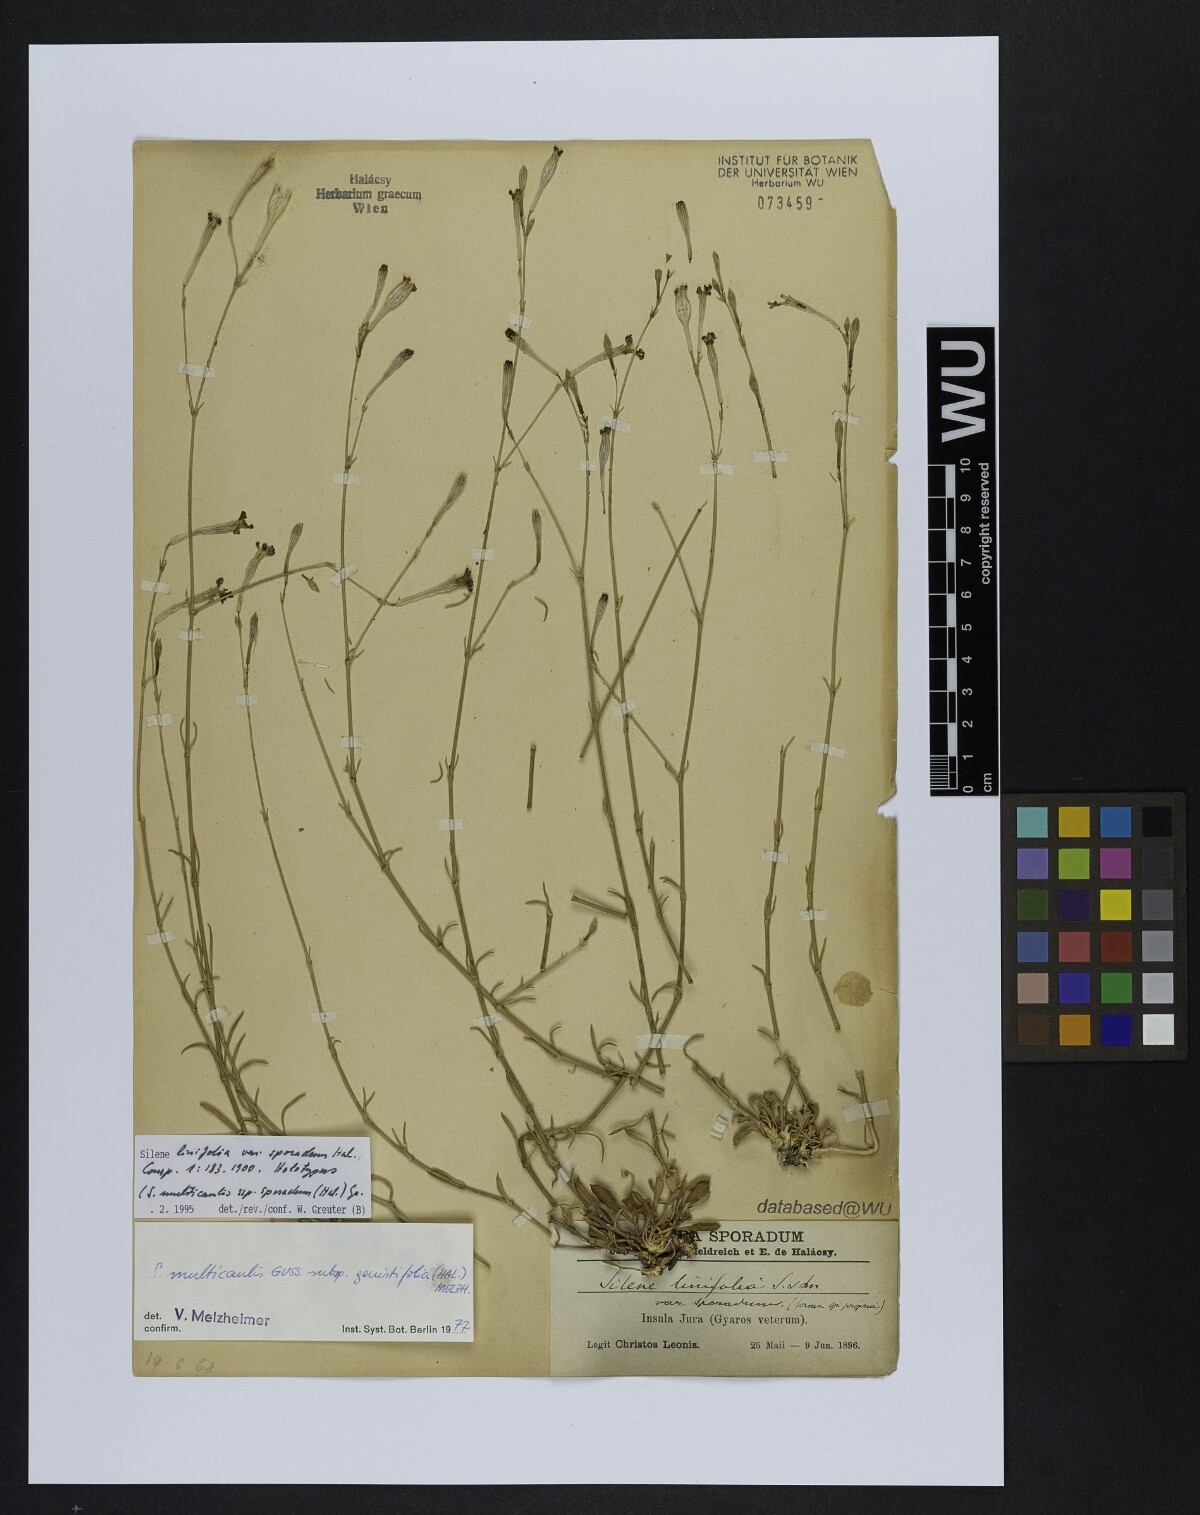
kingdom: Plantae
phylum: Tracheophyta
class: Magnoliopsida
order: Caryophyllales
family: Caryophyllaceae
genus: Silene
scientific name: Silene multicaulis
